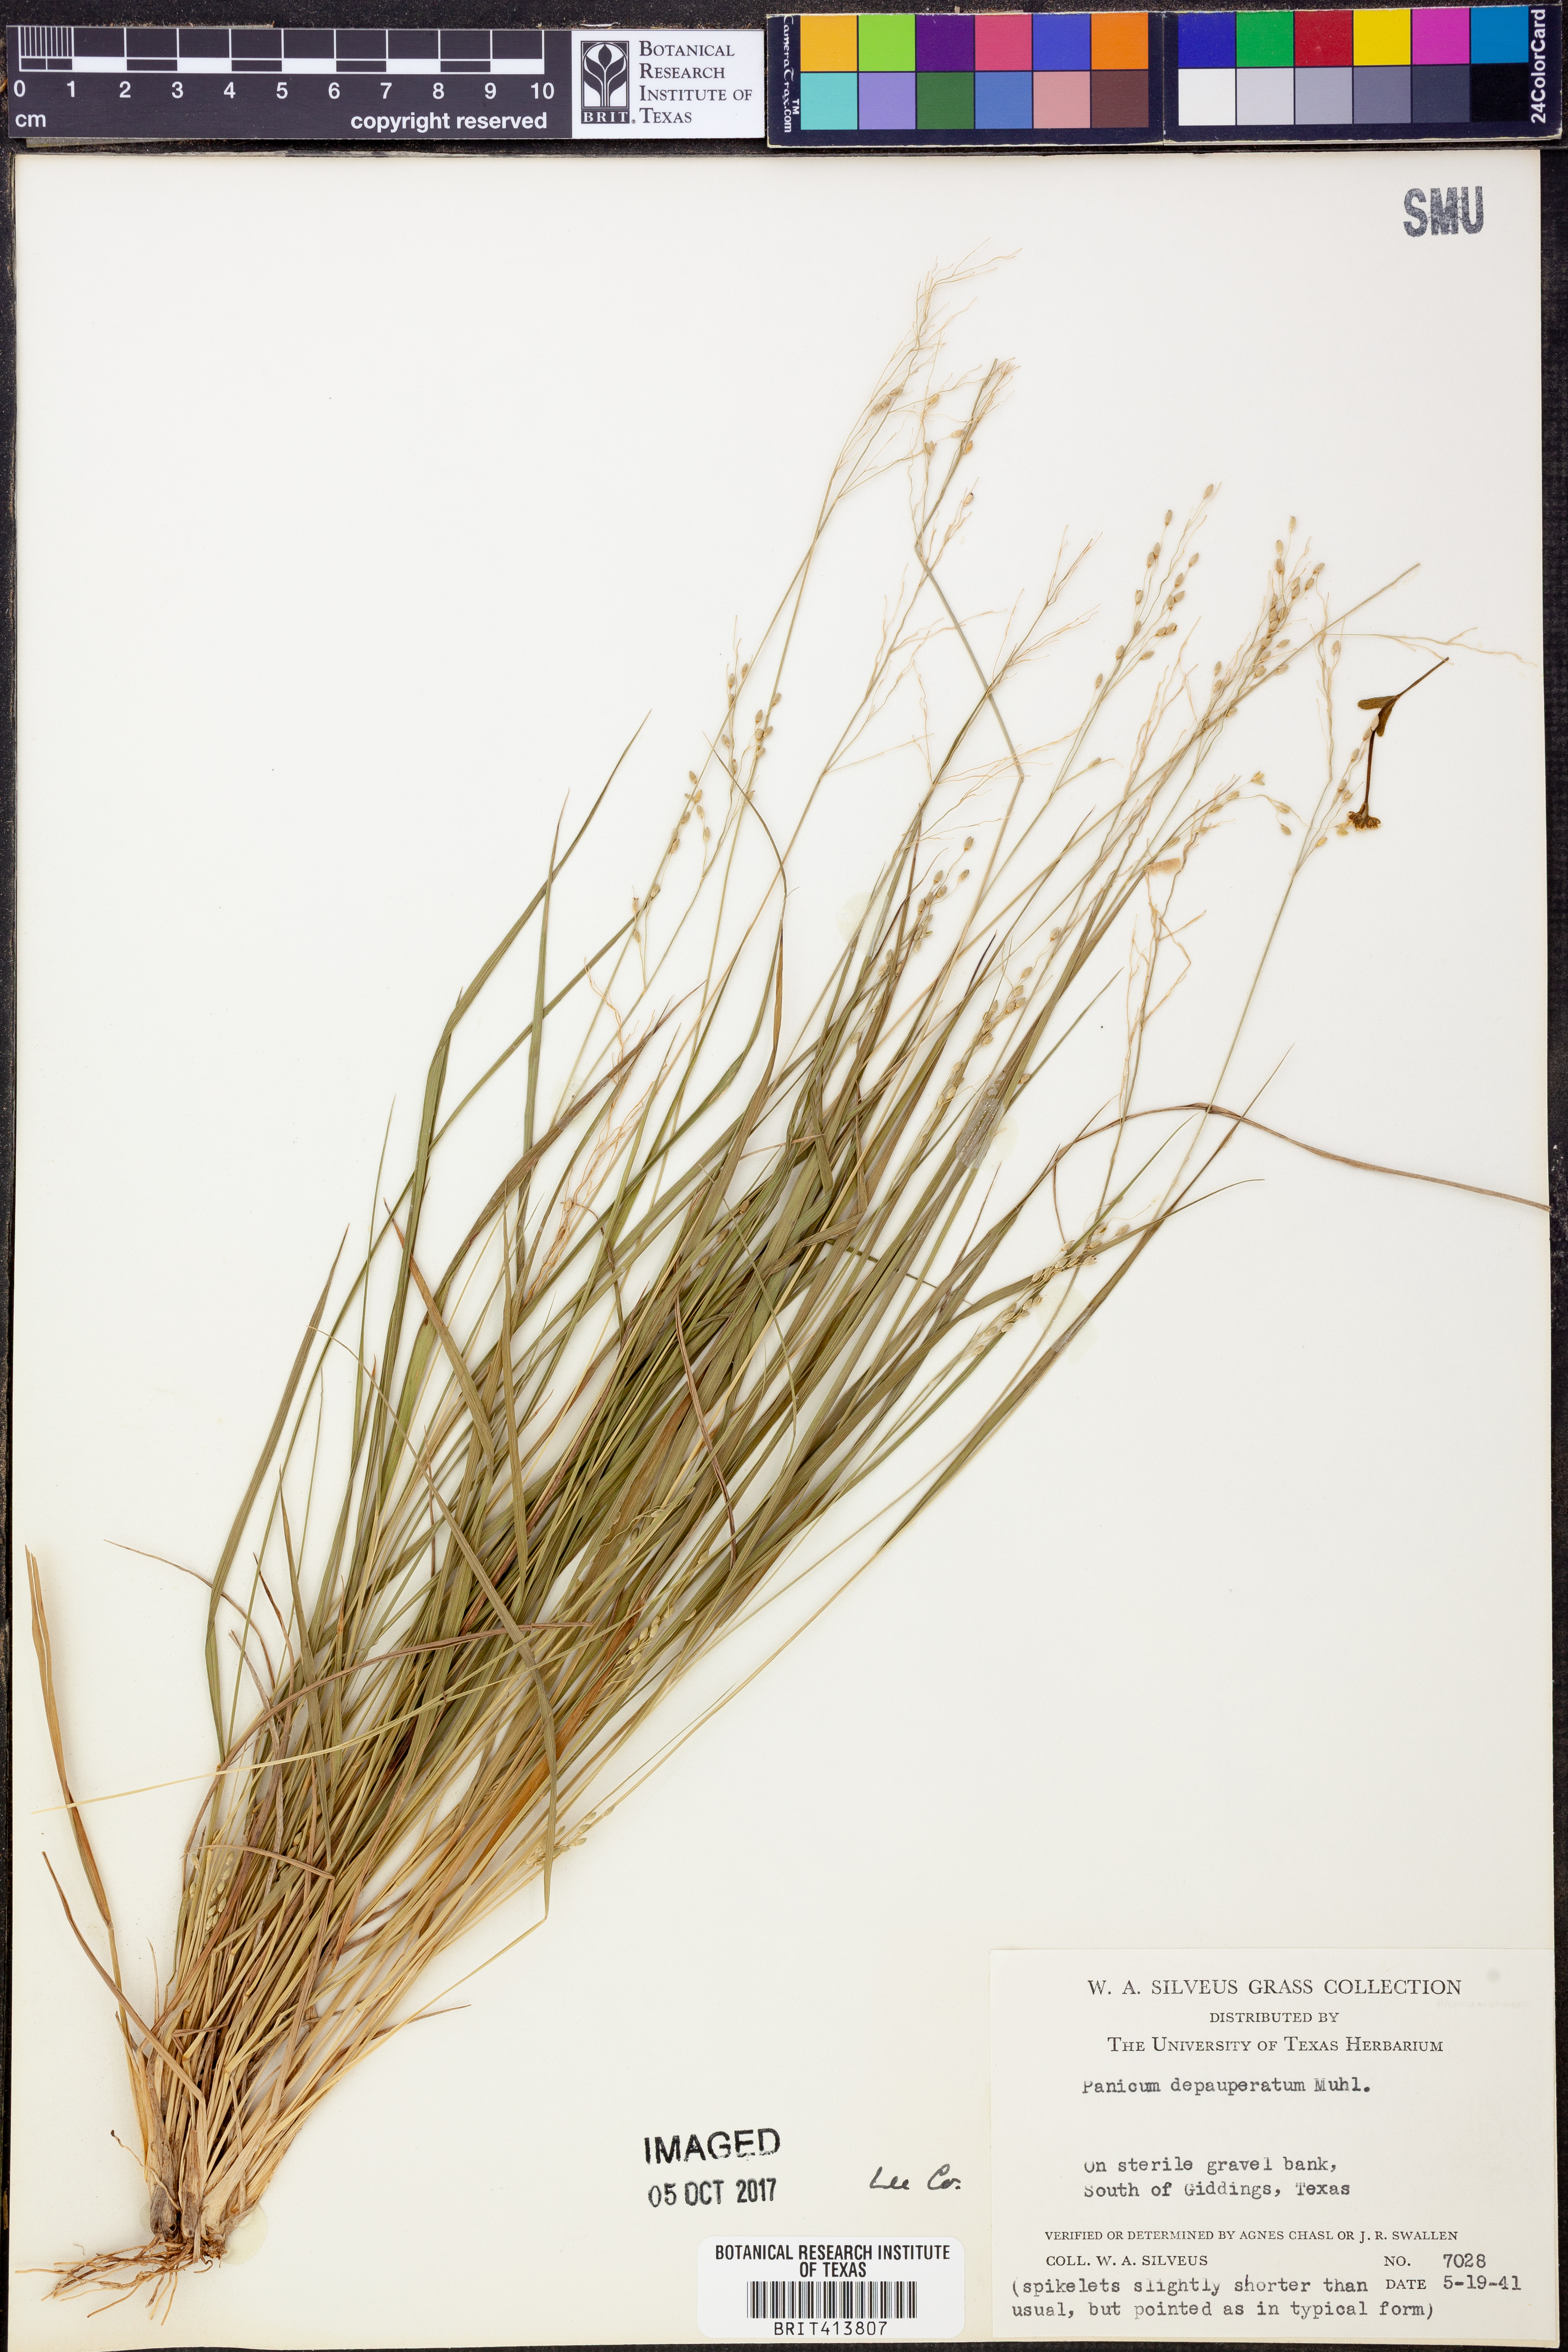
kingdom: Plantae
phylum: Tracheophyta
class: Liliopsida
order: Poales
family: Poaceae
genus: Dichanthelium
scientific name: Dichanthelium depauperatum
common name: Depauperate panicgrass
